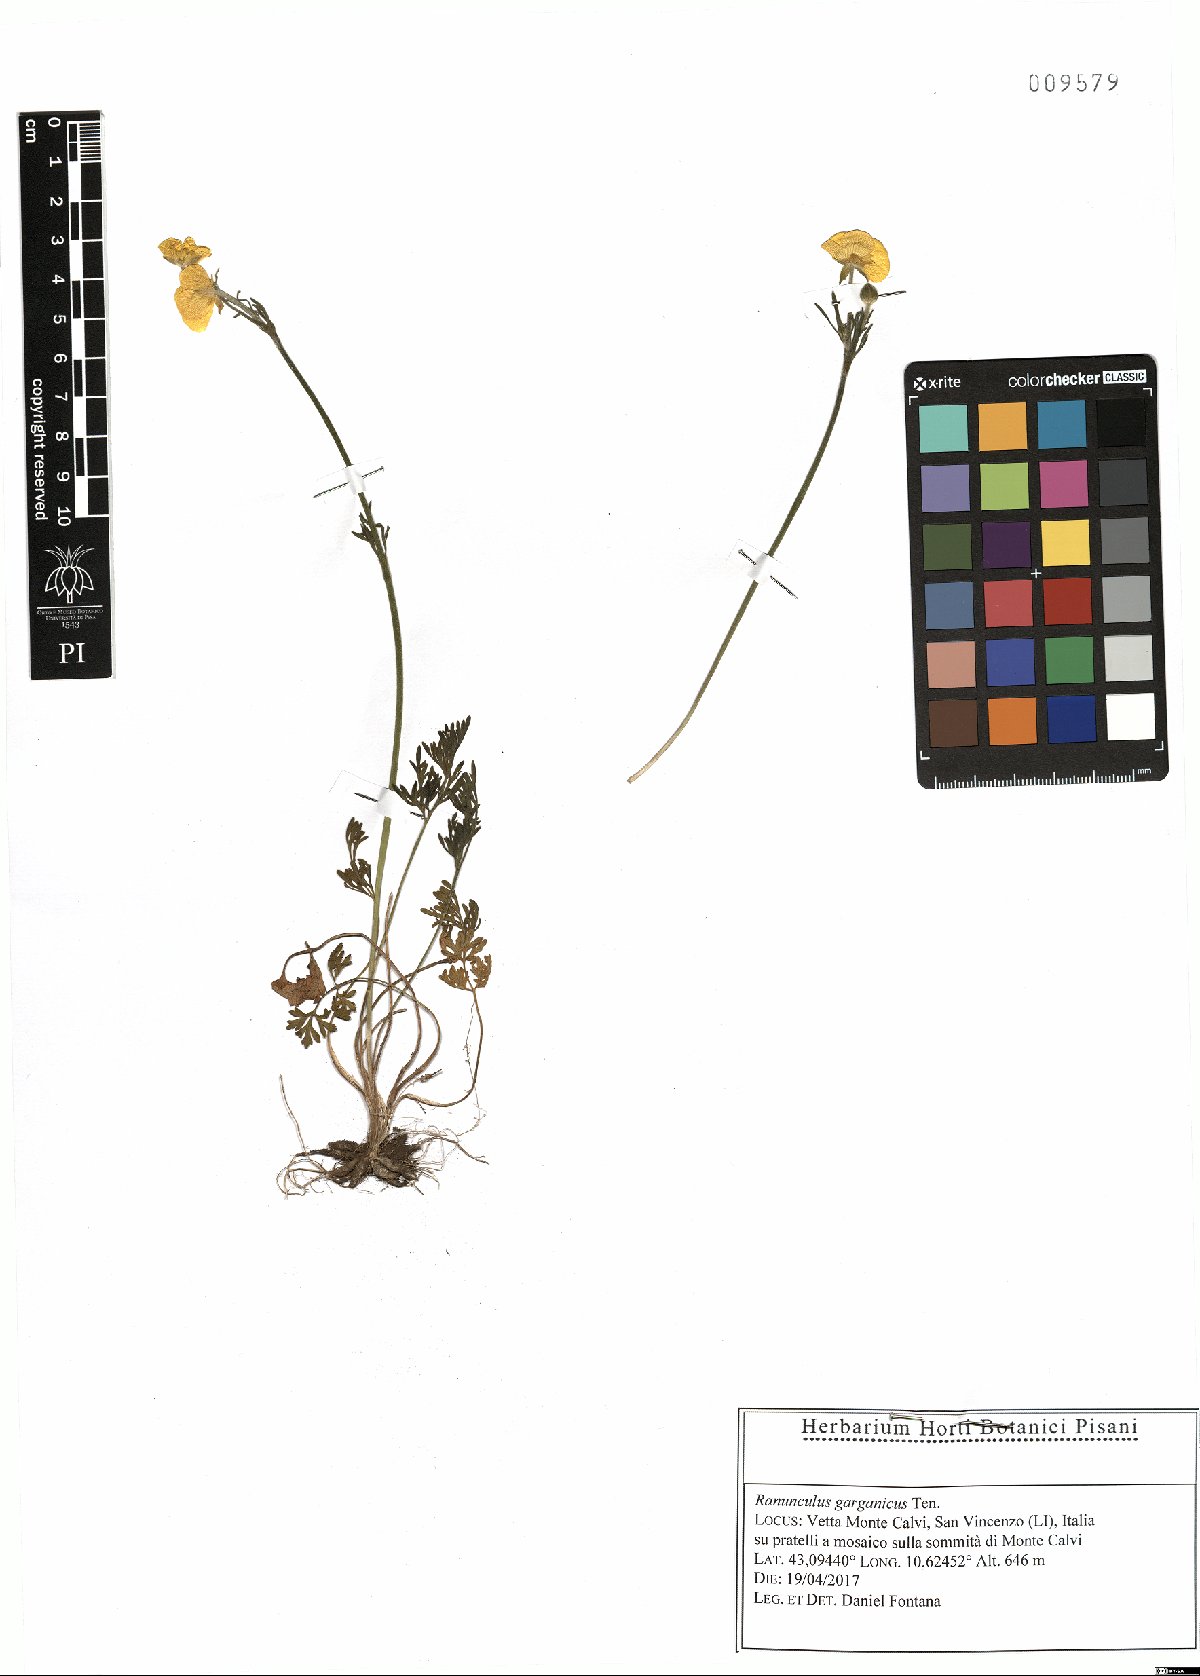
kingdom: Plantae
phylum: Tracheophyta
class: Magnoliopsida
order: Ranunculales
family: Ranunculaceae
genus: Ranunculus
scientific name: Ranunculus garganicus
